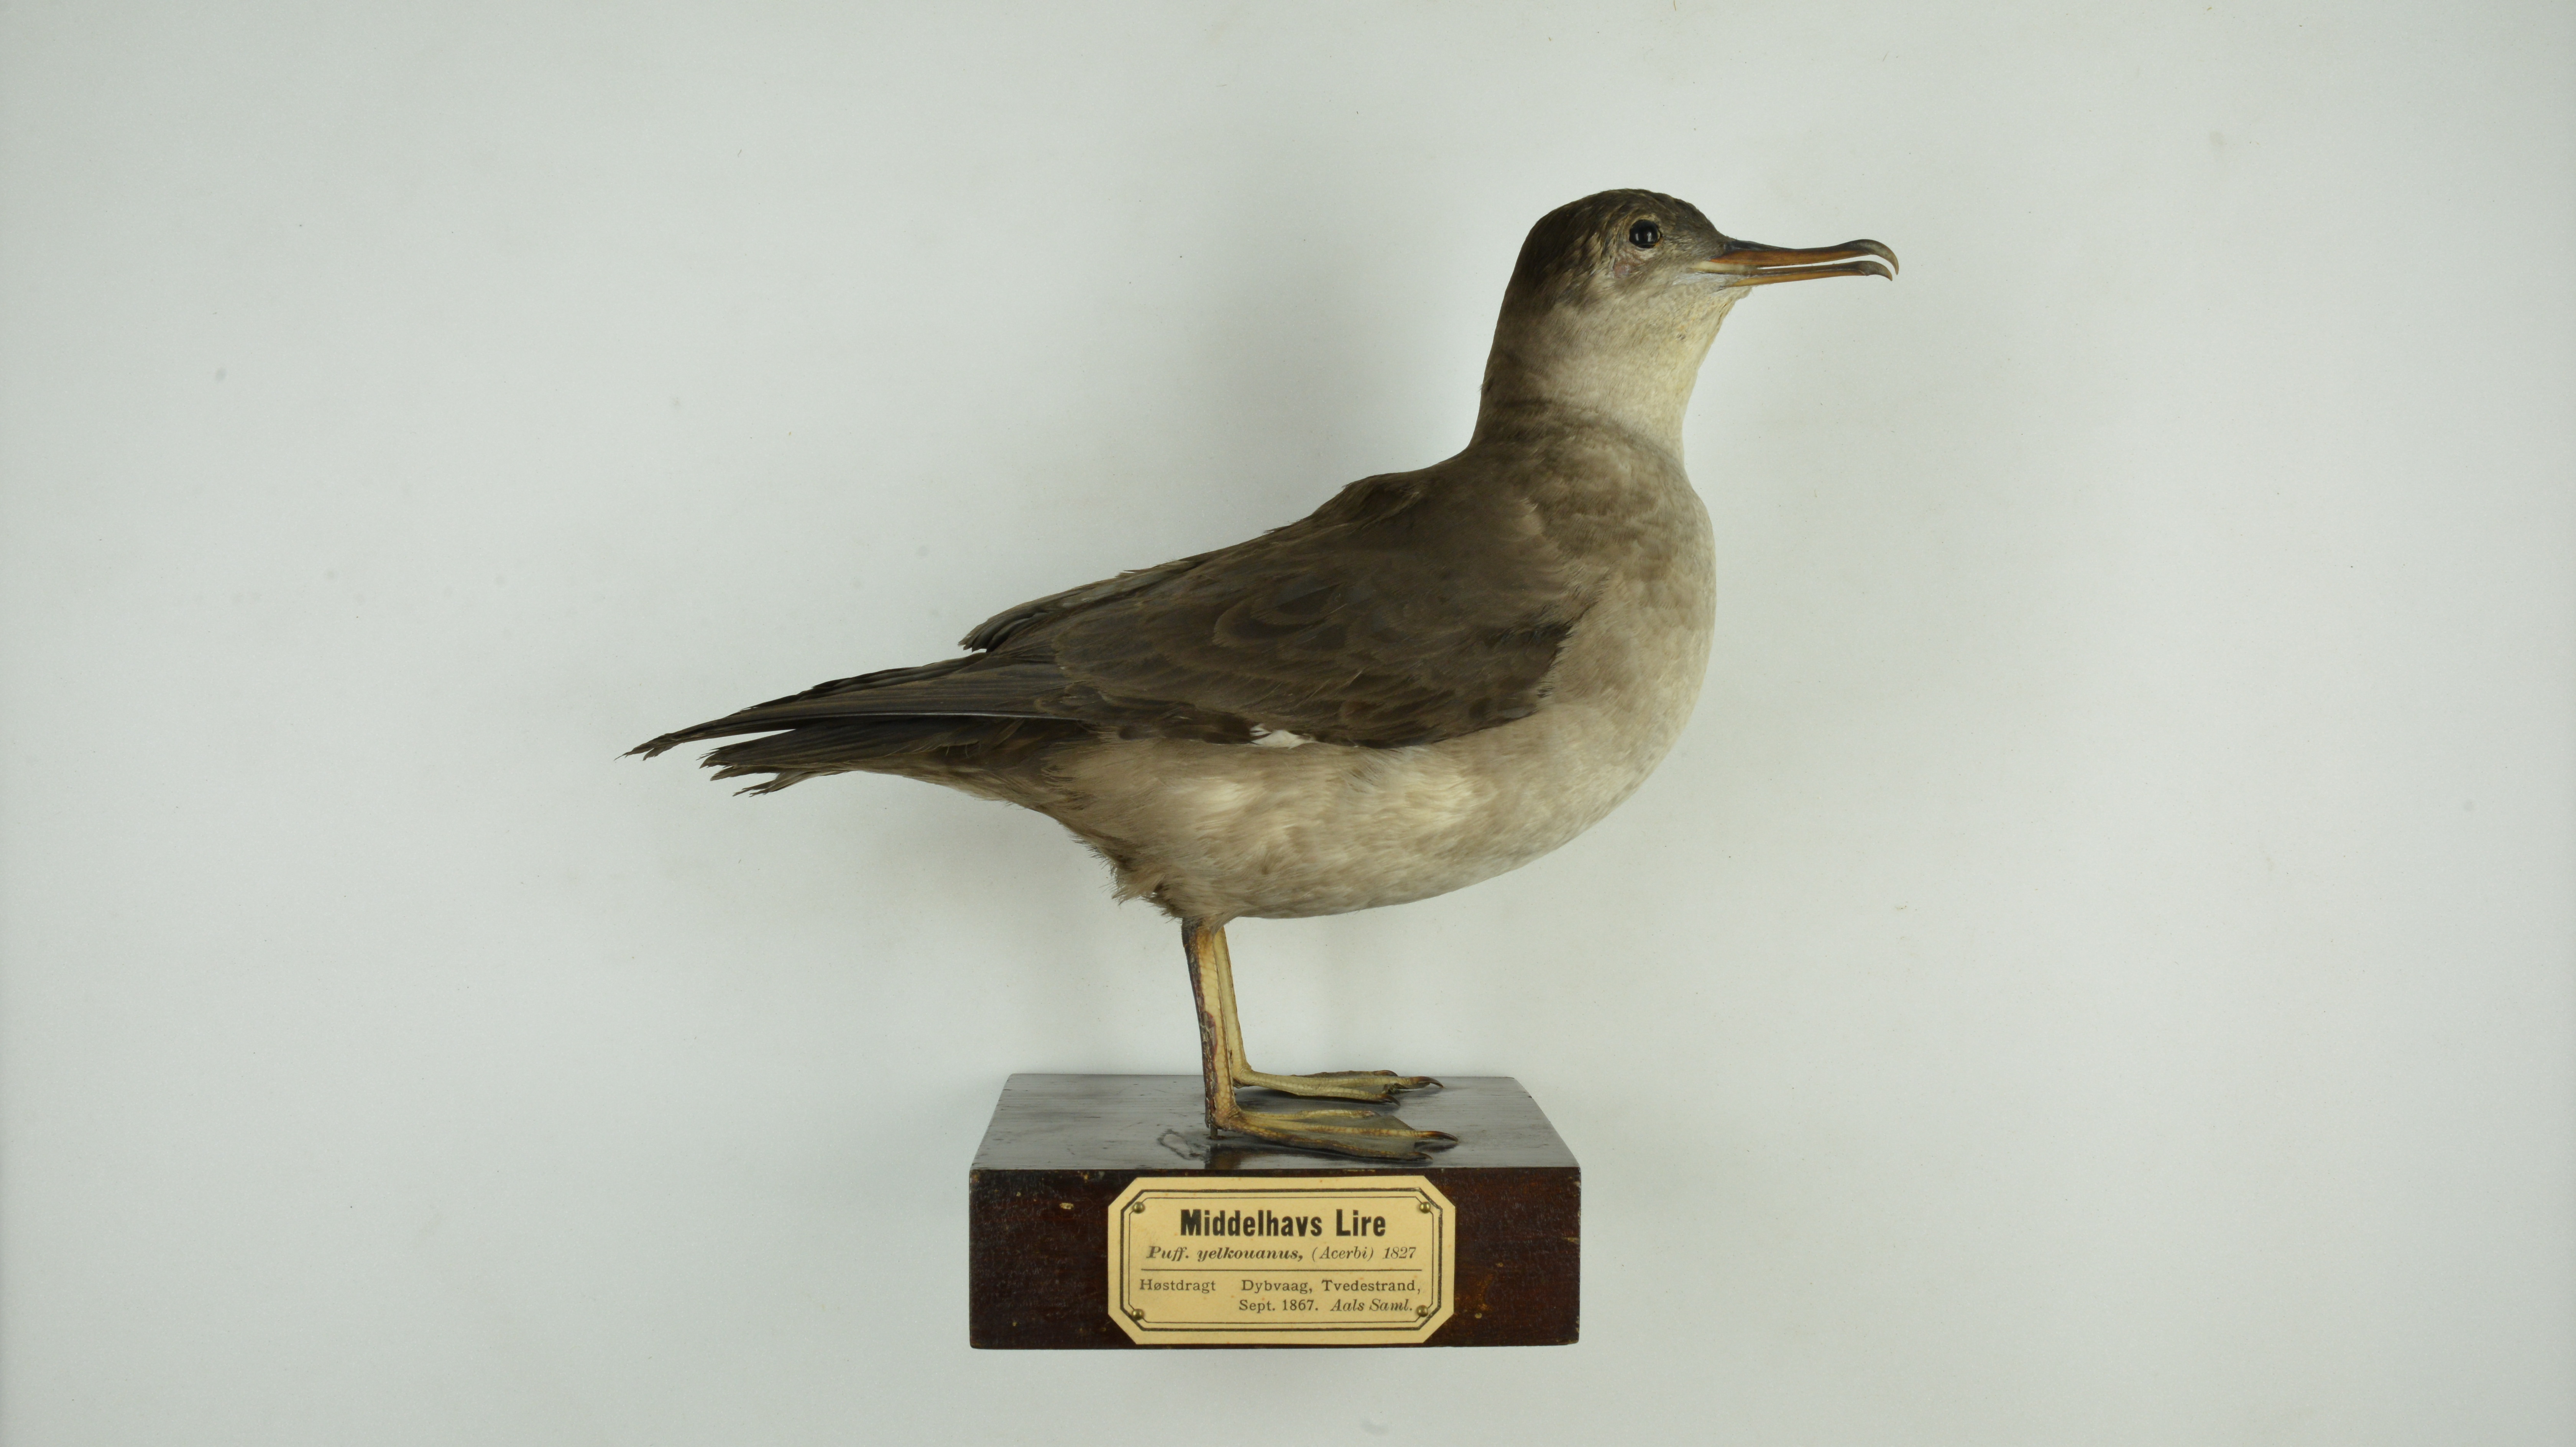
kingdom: Animalia
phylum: Chordata
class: Aves
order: Procellariiformes
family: Procellariidae
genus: Puffinus
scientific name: Puffinus mauretanicus
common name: Balearic shearwater
